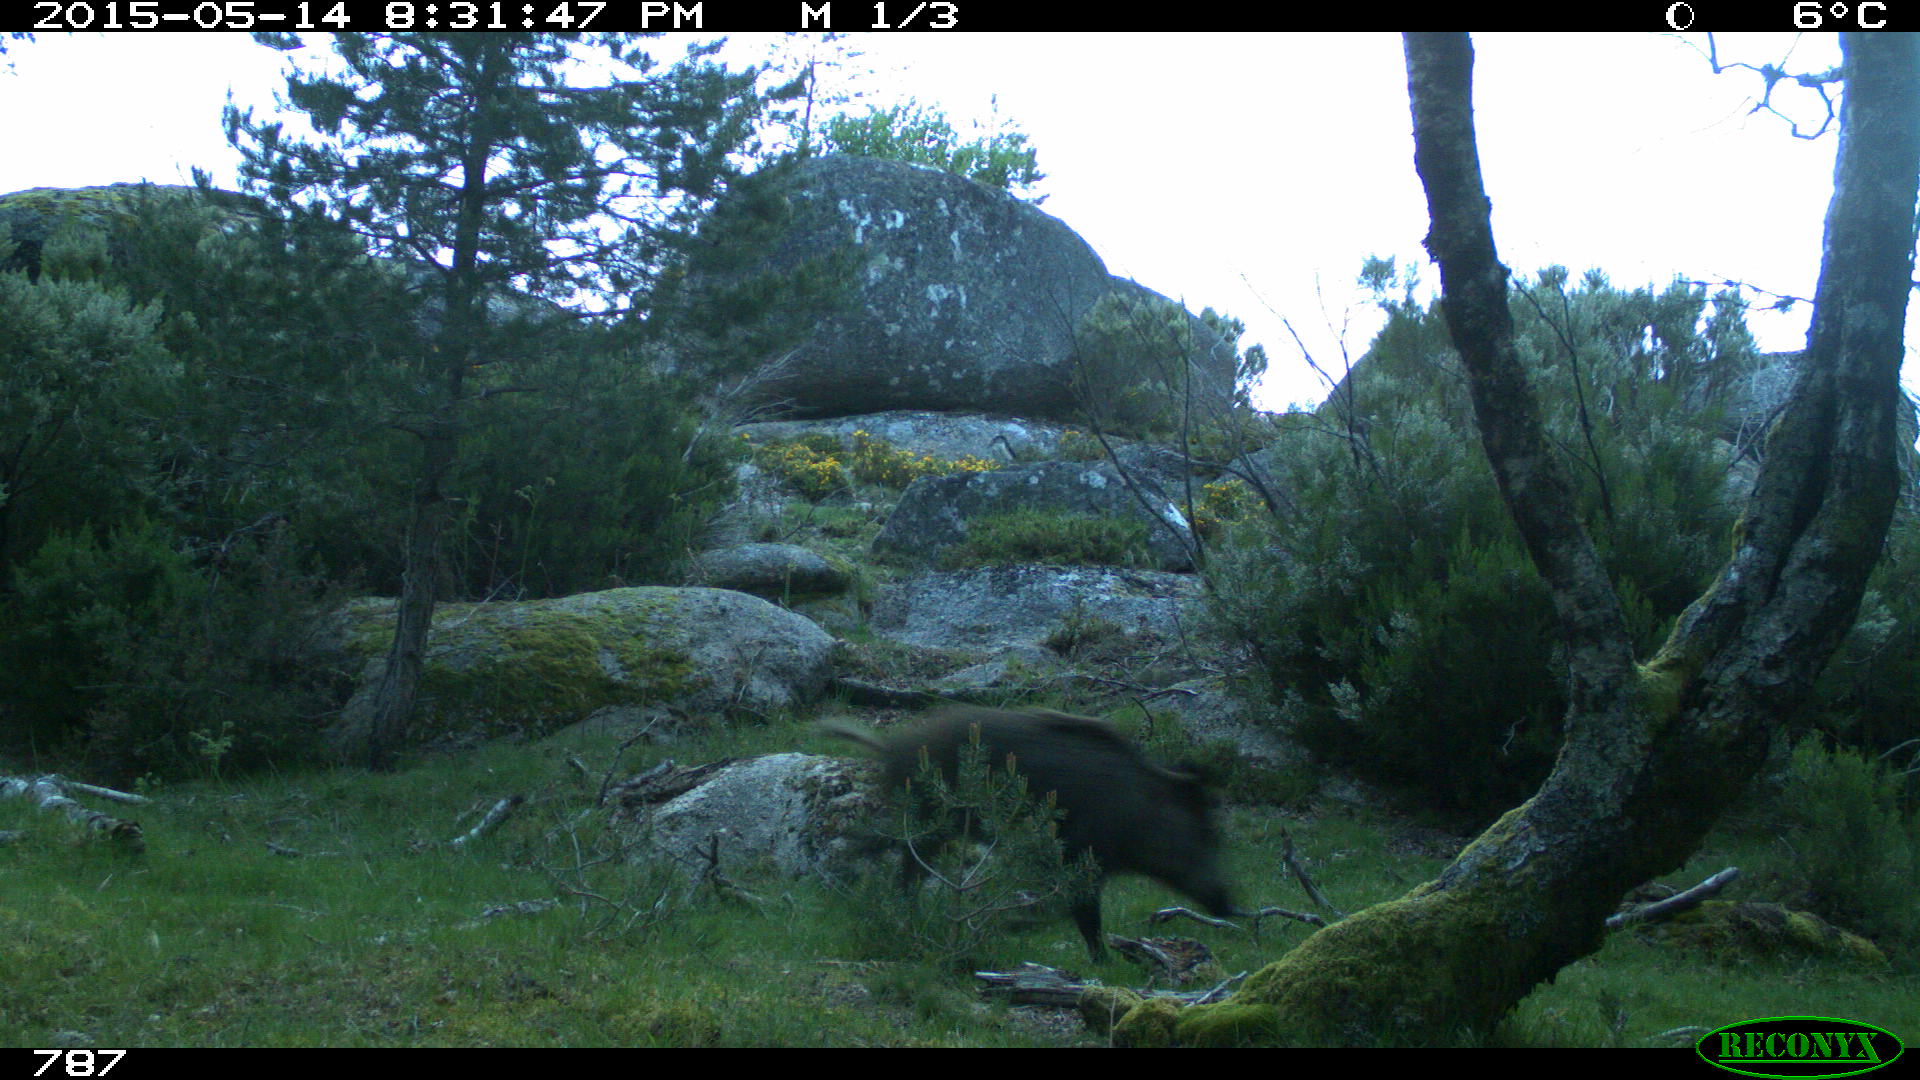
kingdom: Animalia
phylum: Chordata
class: Mammalia
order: Artiodactyla
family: Suidae
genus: Sus
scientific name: Sus scrofa
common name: Wild boar
